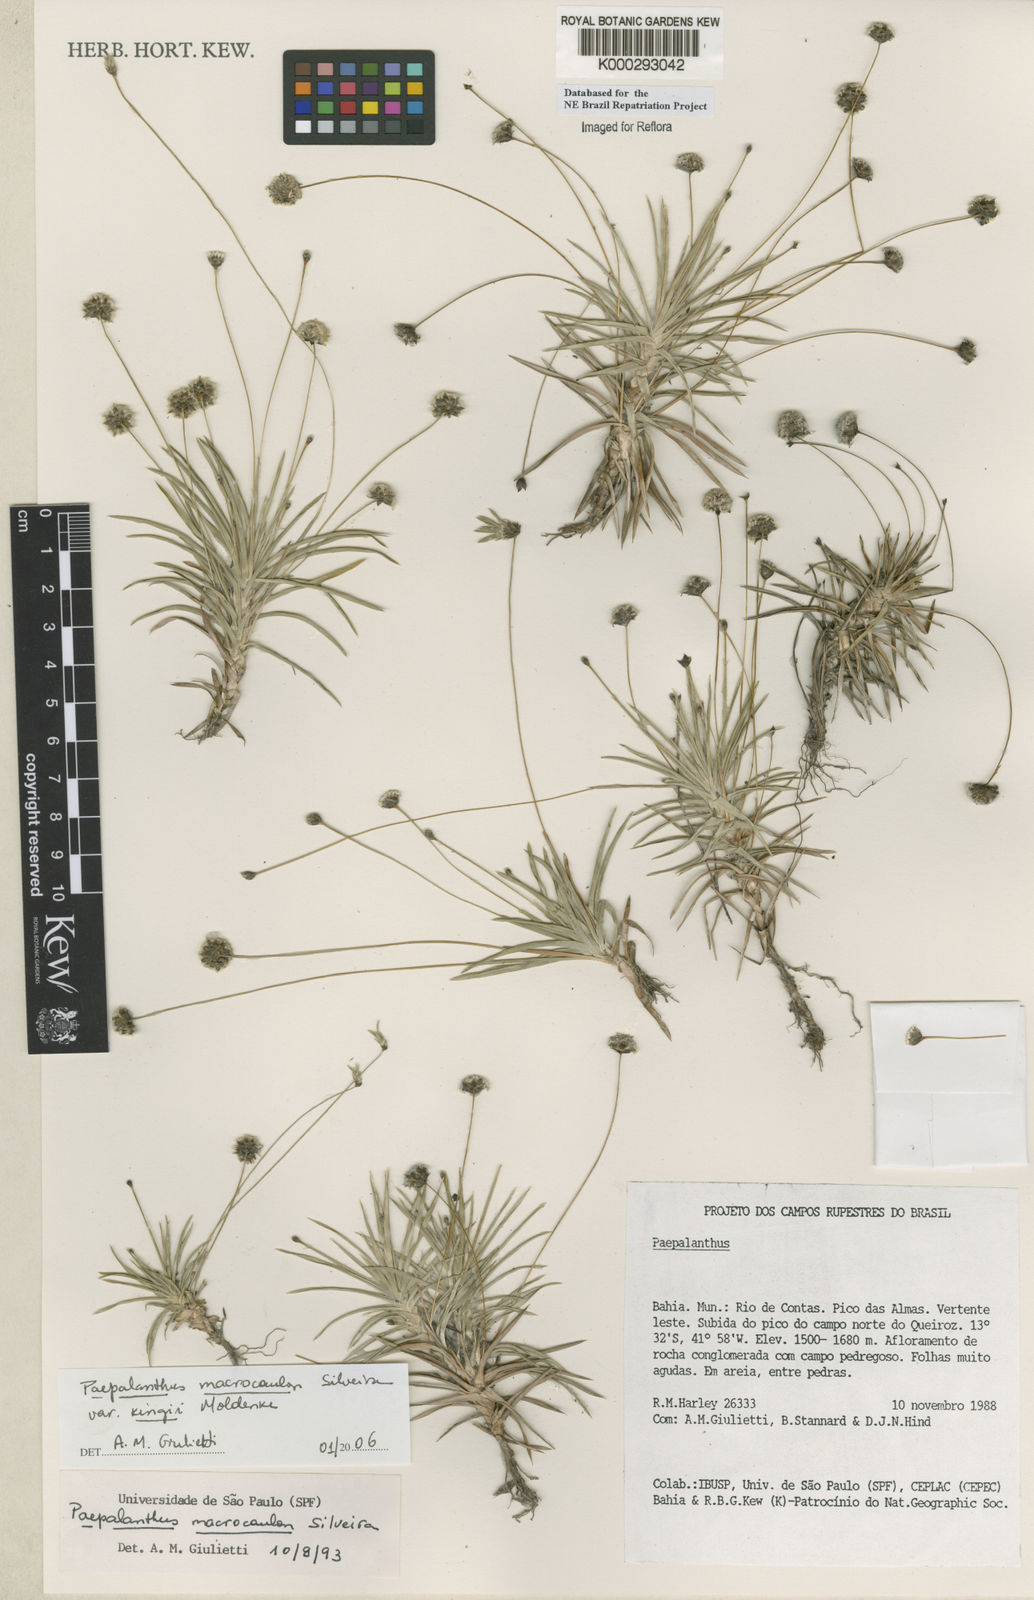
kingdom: Plantae
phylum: Tracheophyta
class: Liliopsida
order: Poales
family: Eriocaulaceae
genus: Paepalanthus
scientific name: Paepalanthus macrocaulon
